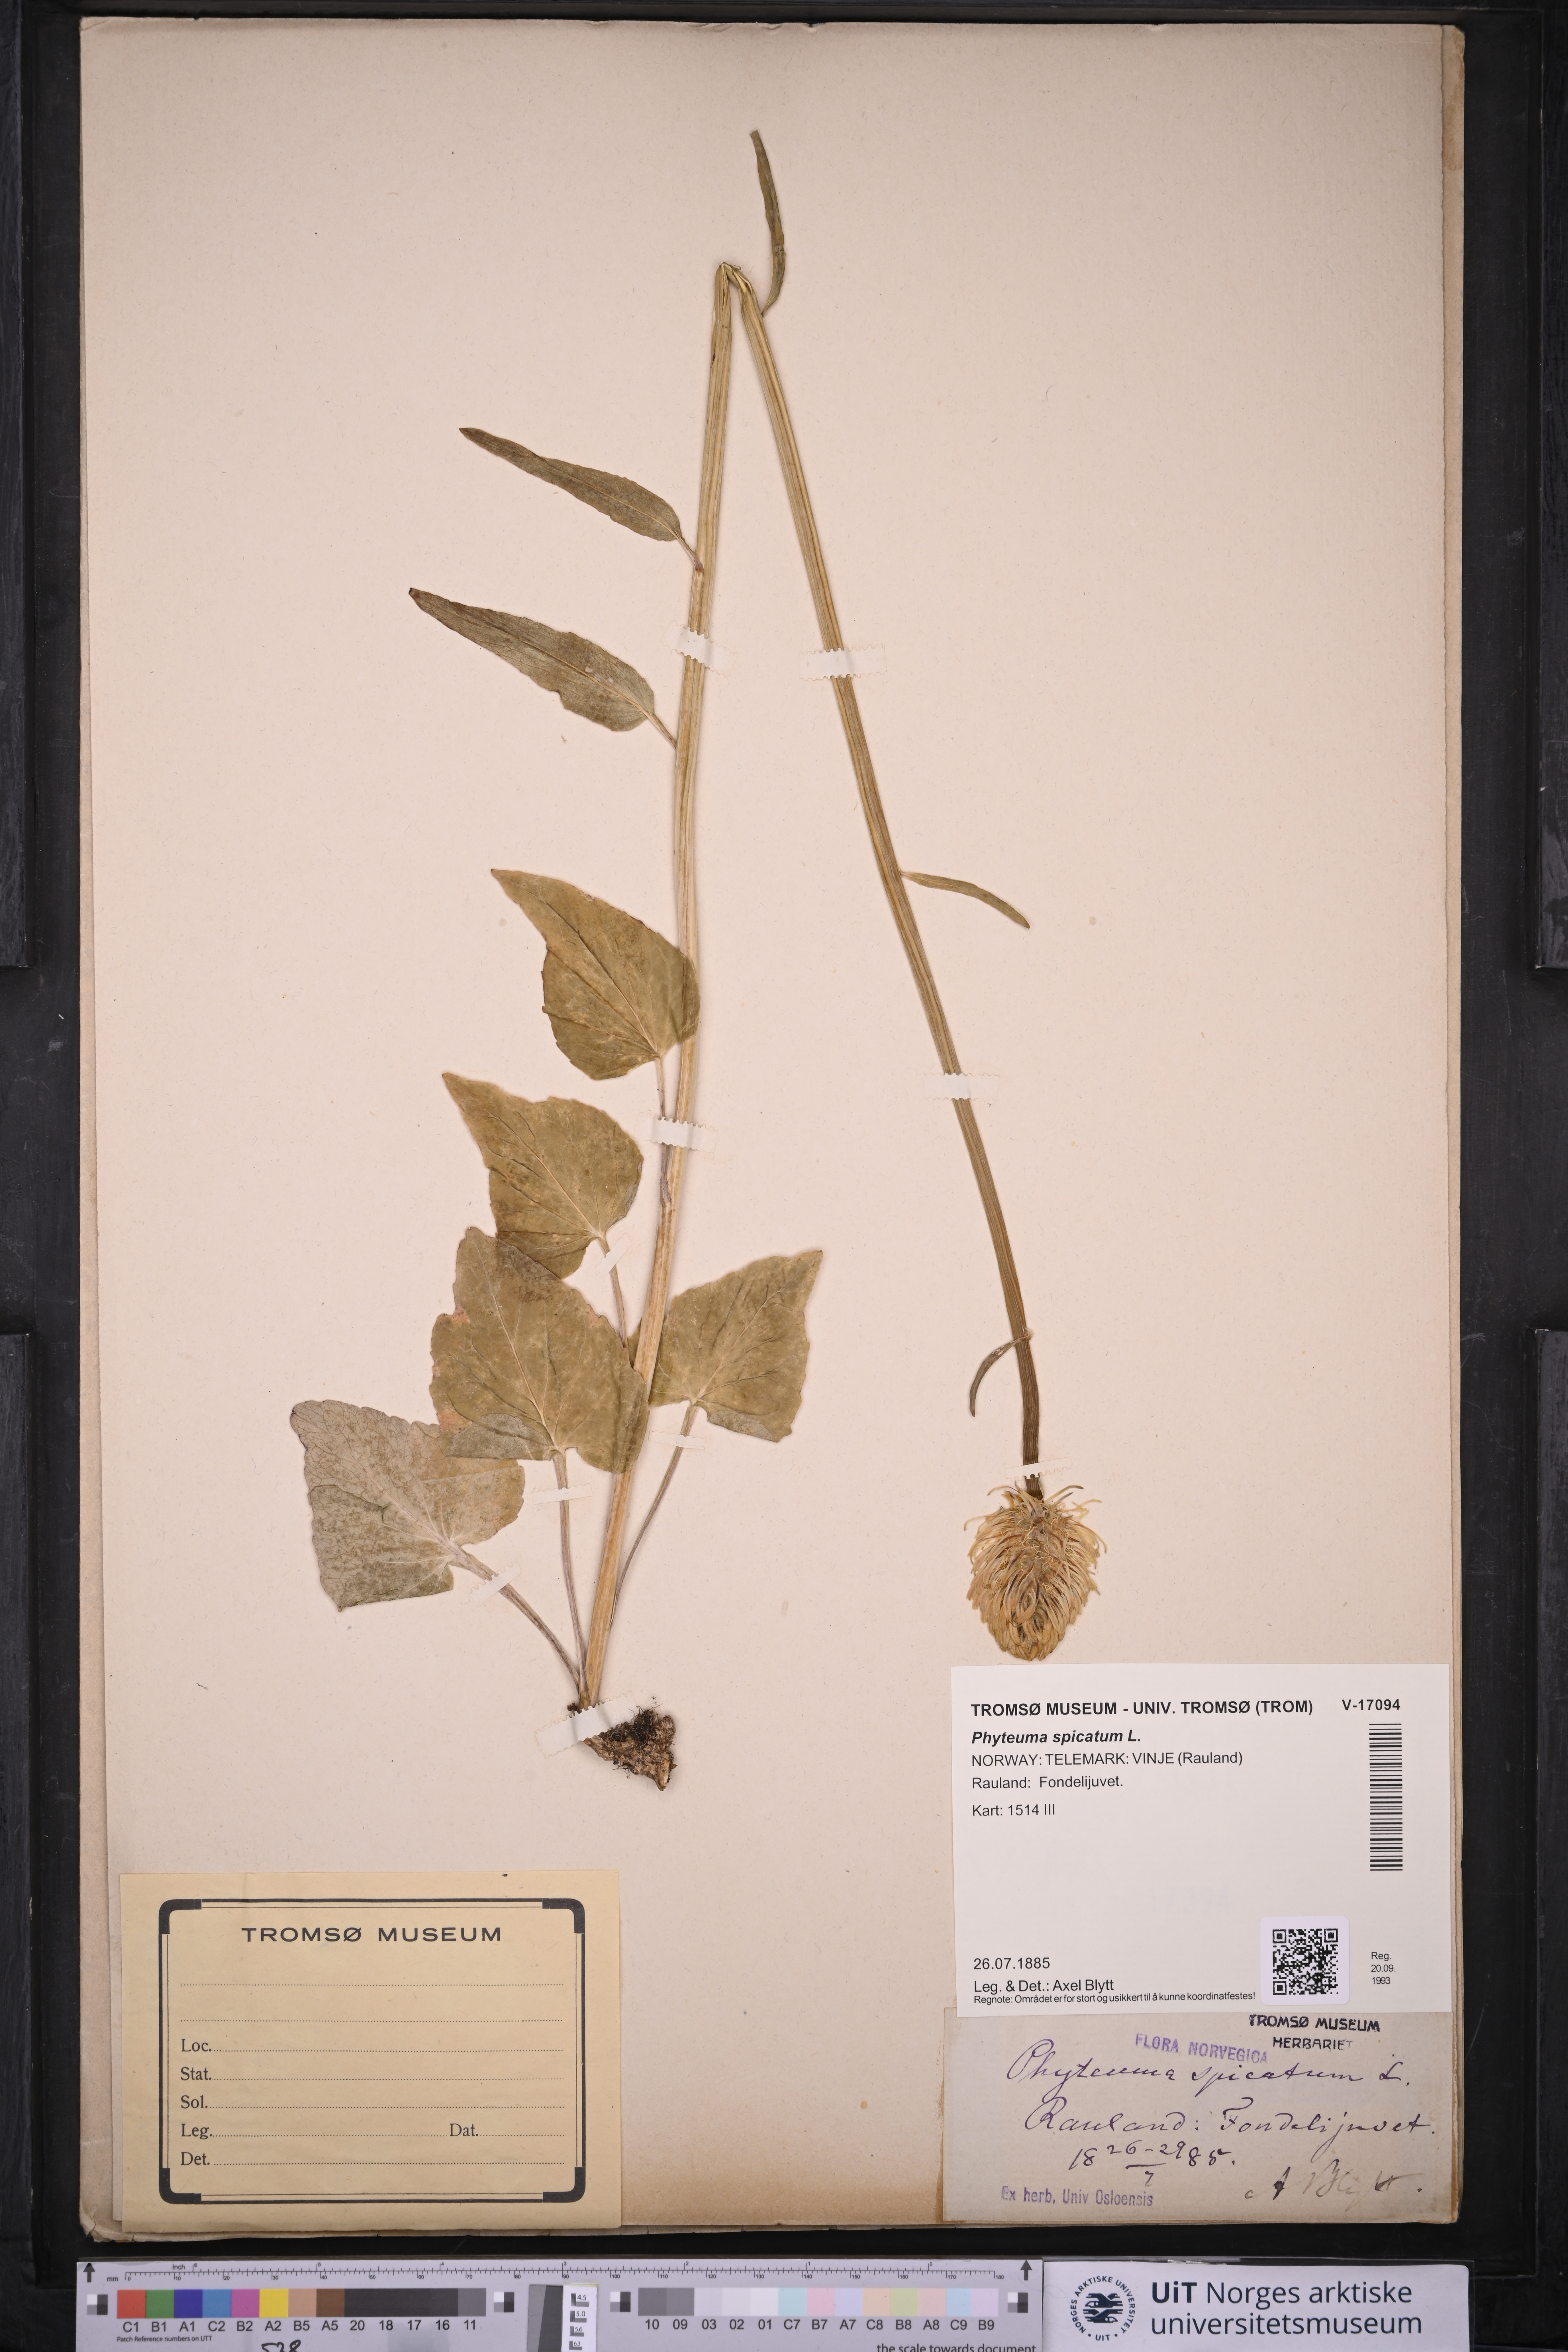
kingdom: Plantae
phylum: Tracheophyta
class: Magnoliopsida
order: Asterales
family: Campanulaceae
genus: Phyteuma
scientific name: Phyteuma spicatum
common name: Spiked rampion
